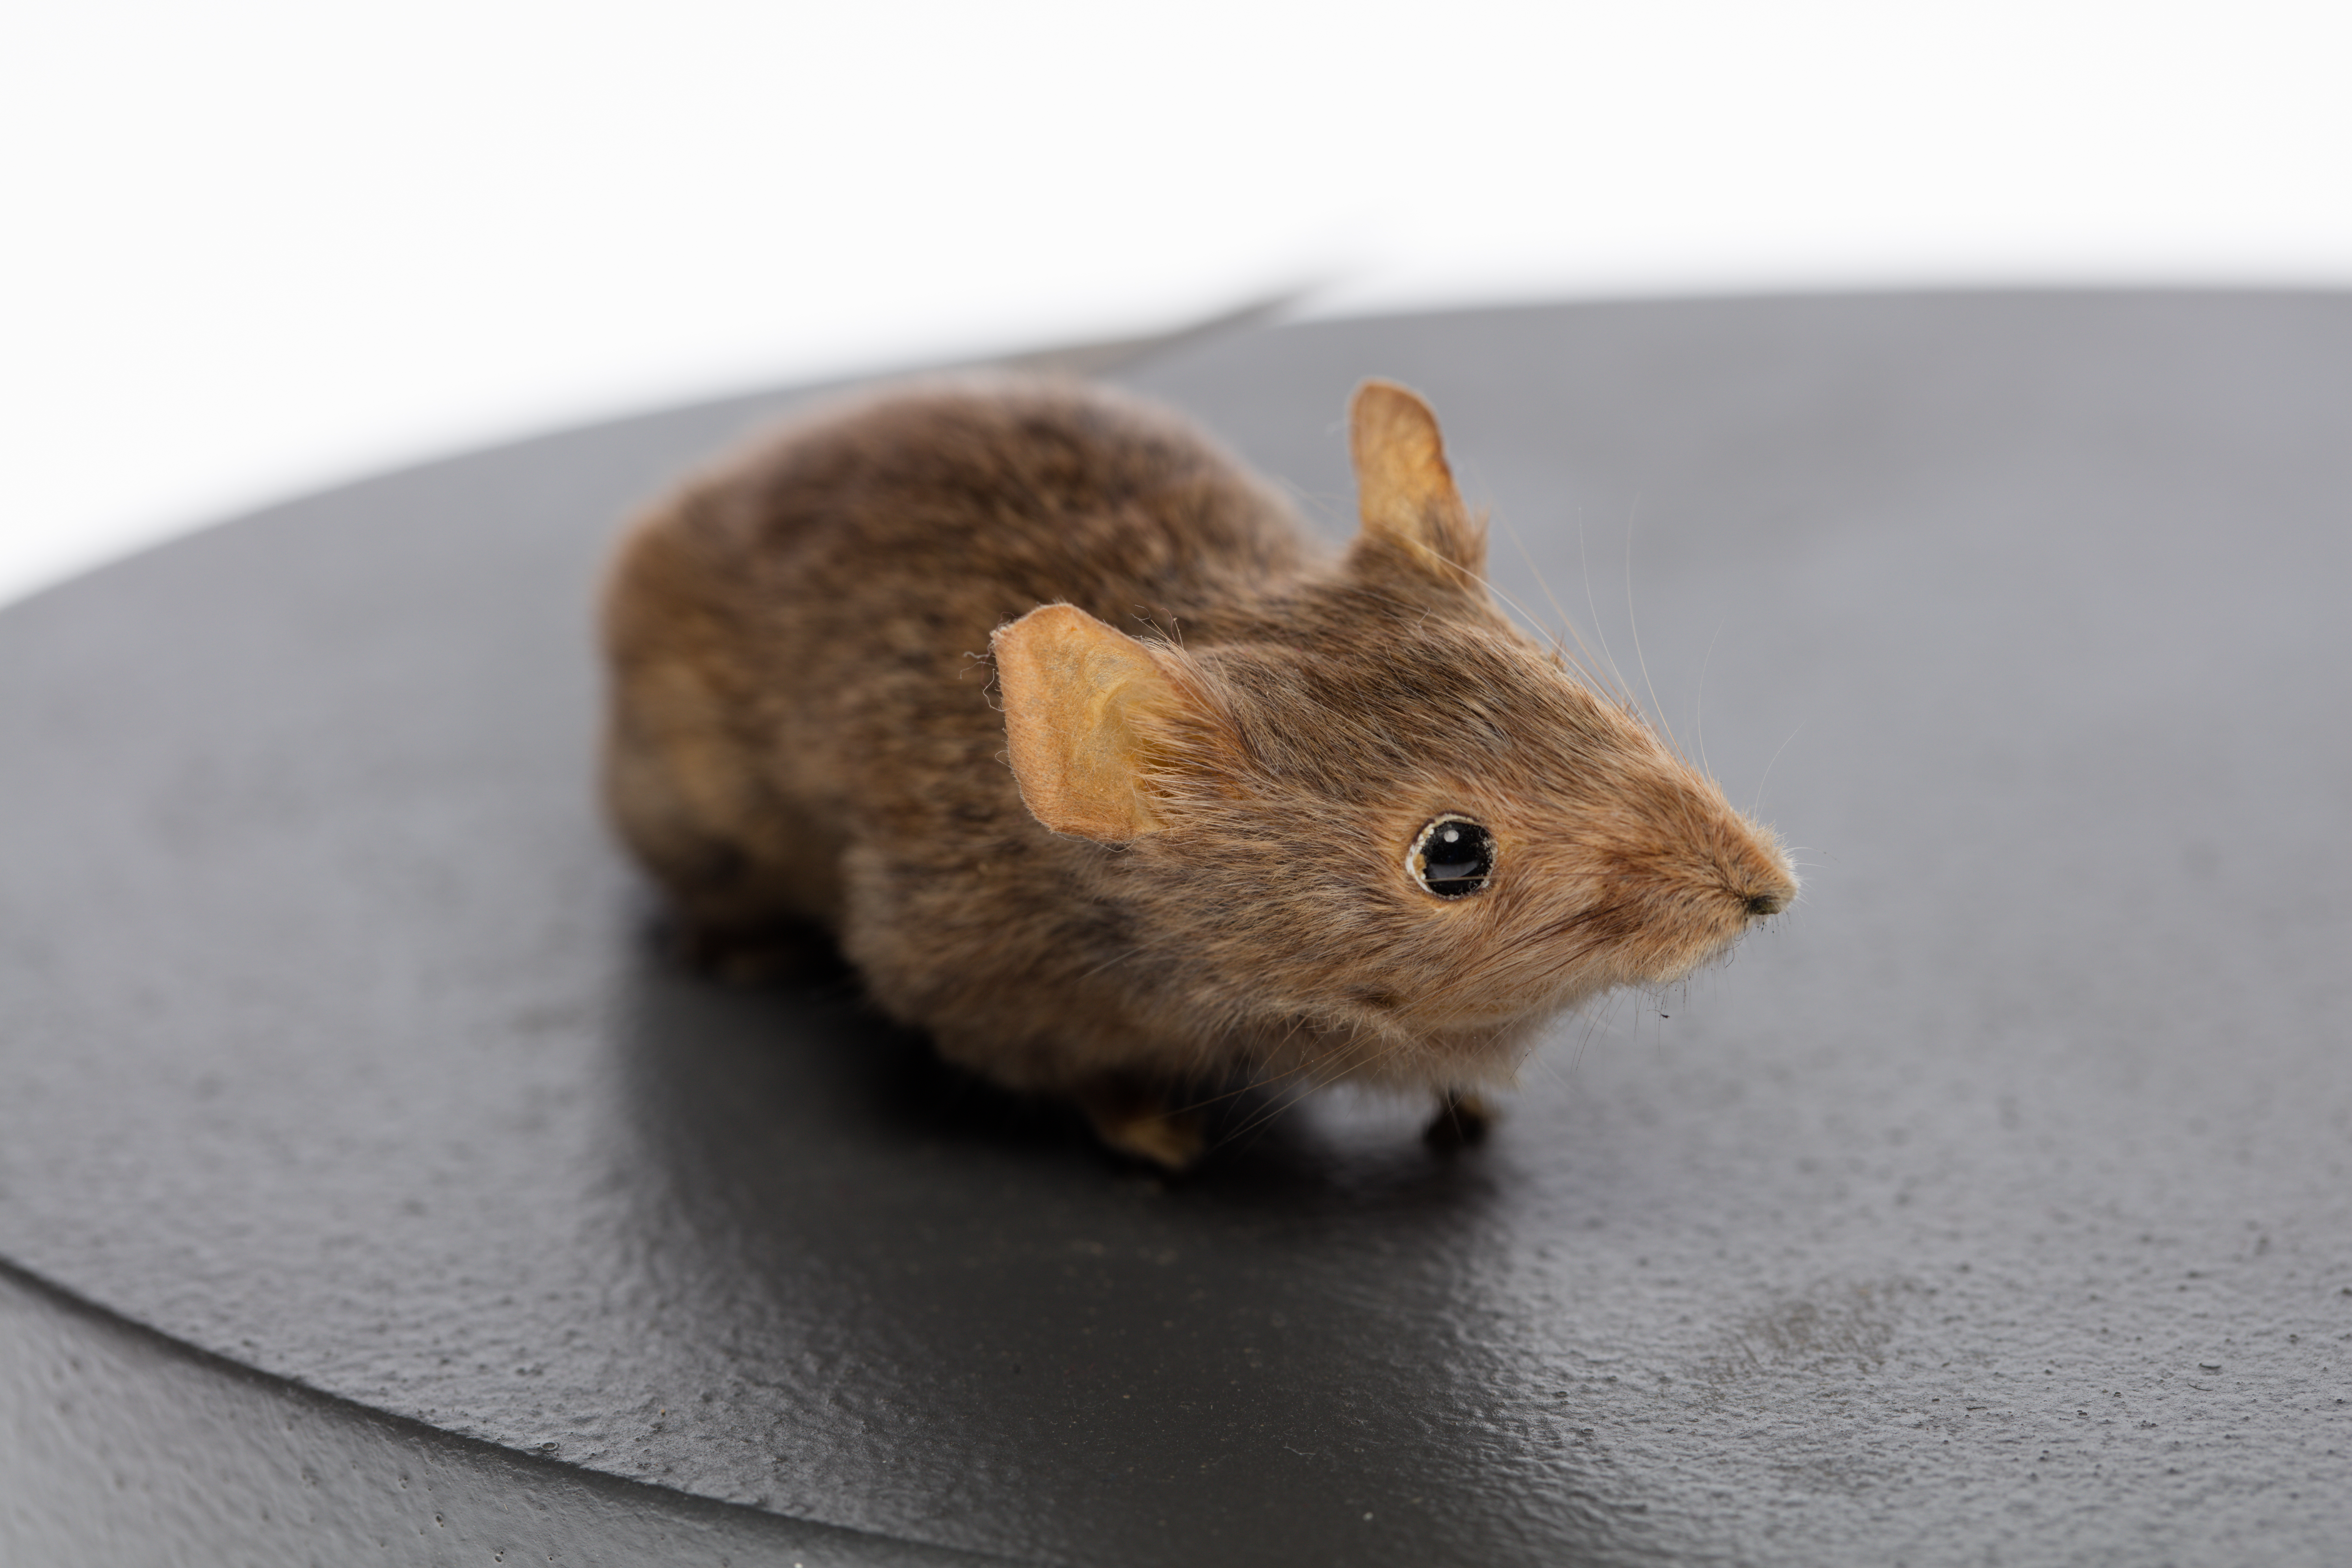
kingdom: Animalia
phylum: Chordata
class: Mammalia
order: Rodentia
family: Muridae
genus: Mus
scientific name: Mus musculus
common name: House mouse
